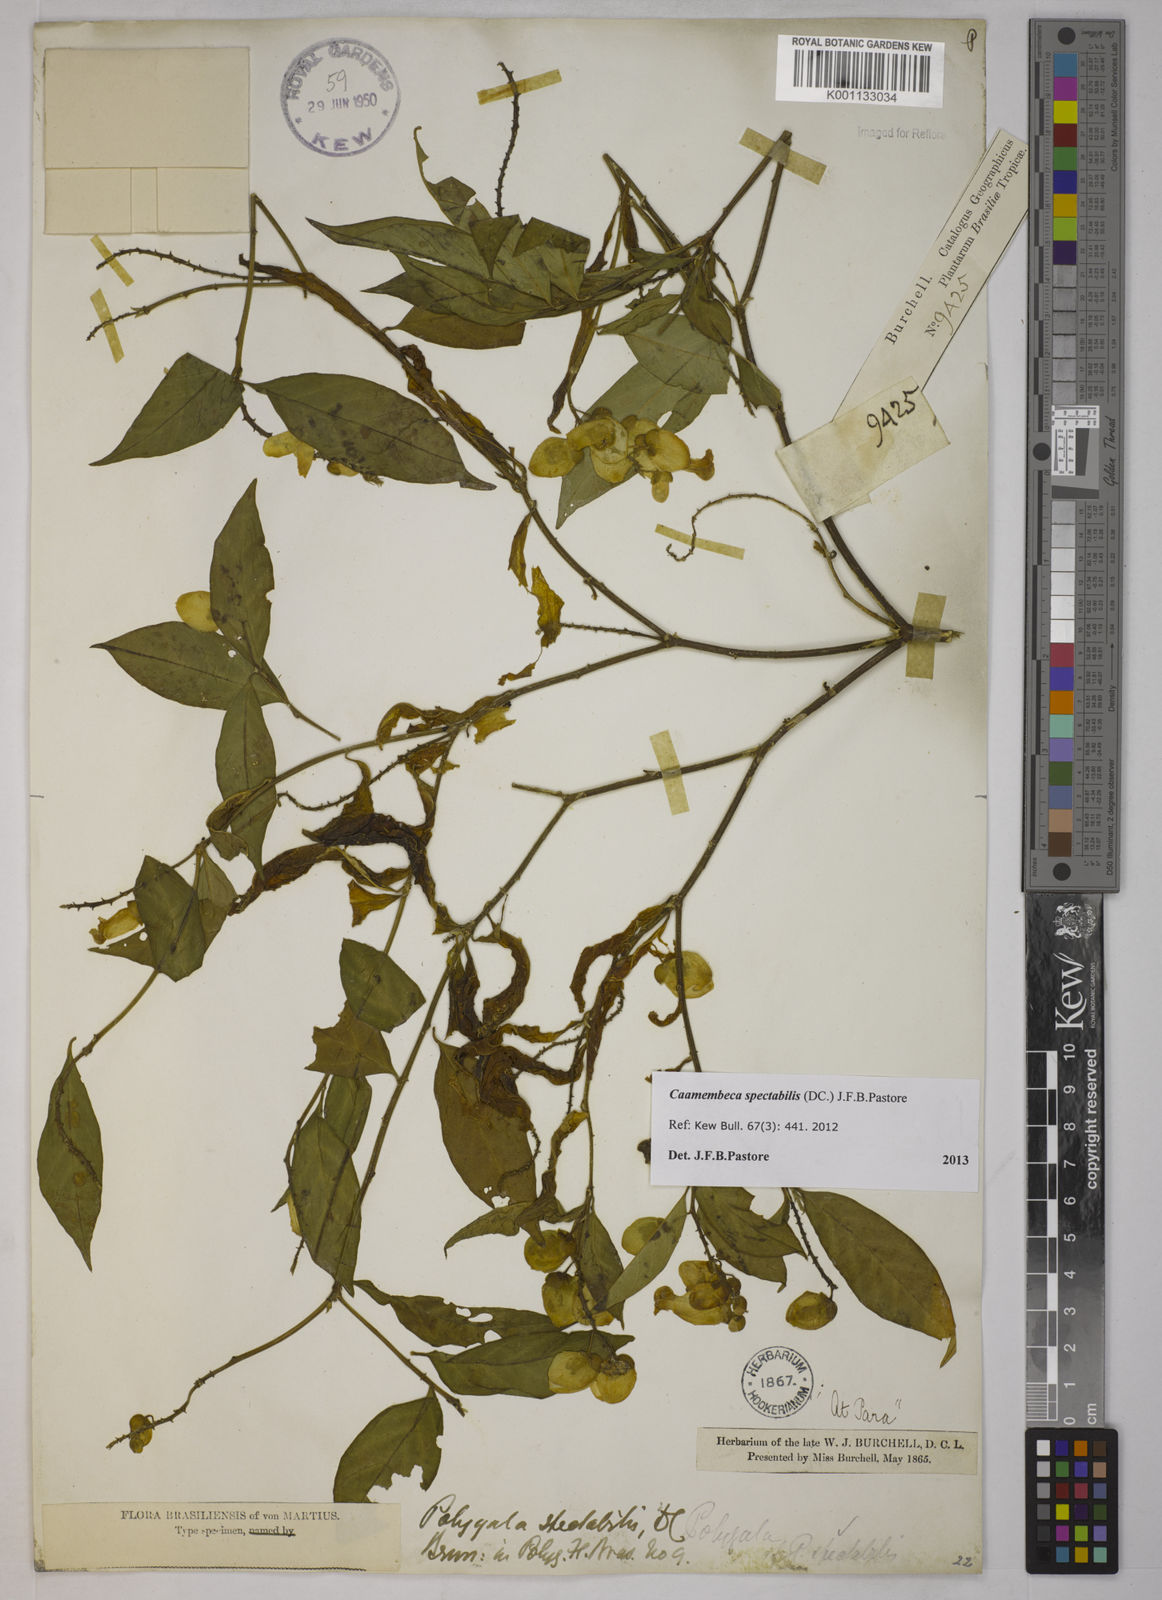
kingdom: Plantae
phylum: Tracheophyta
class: Magnoliopsida
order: Fabales
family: Polygalaceae
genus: Polygala
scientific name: Polygala
